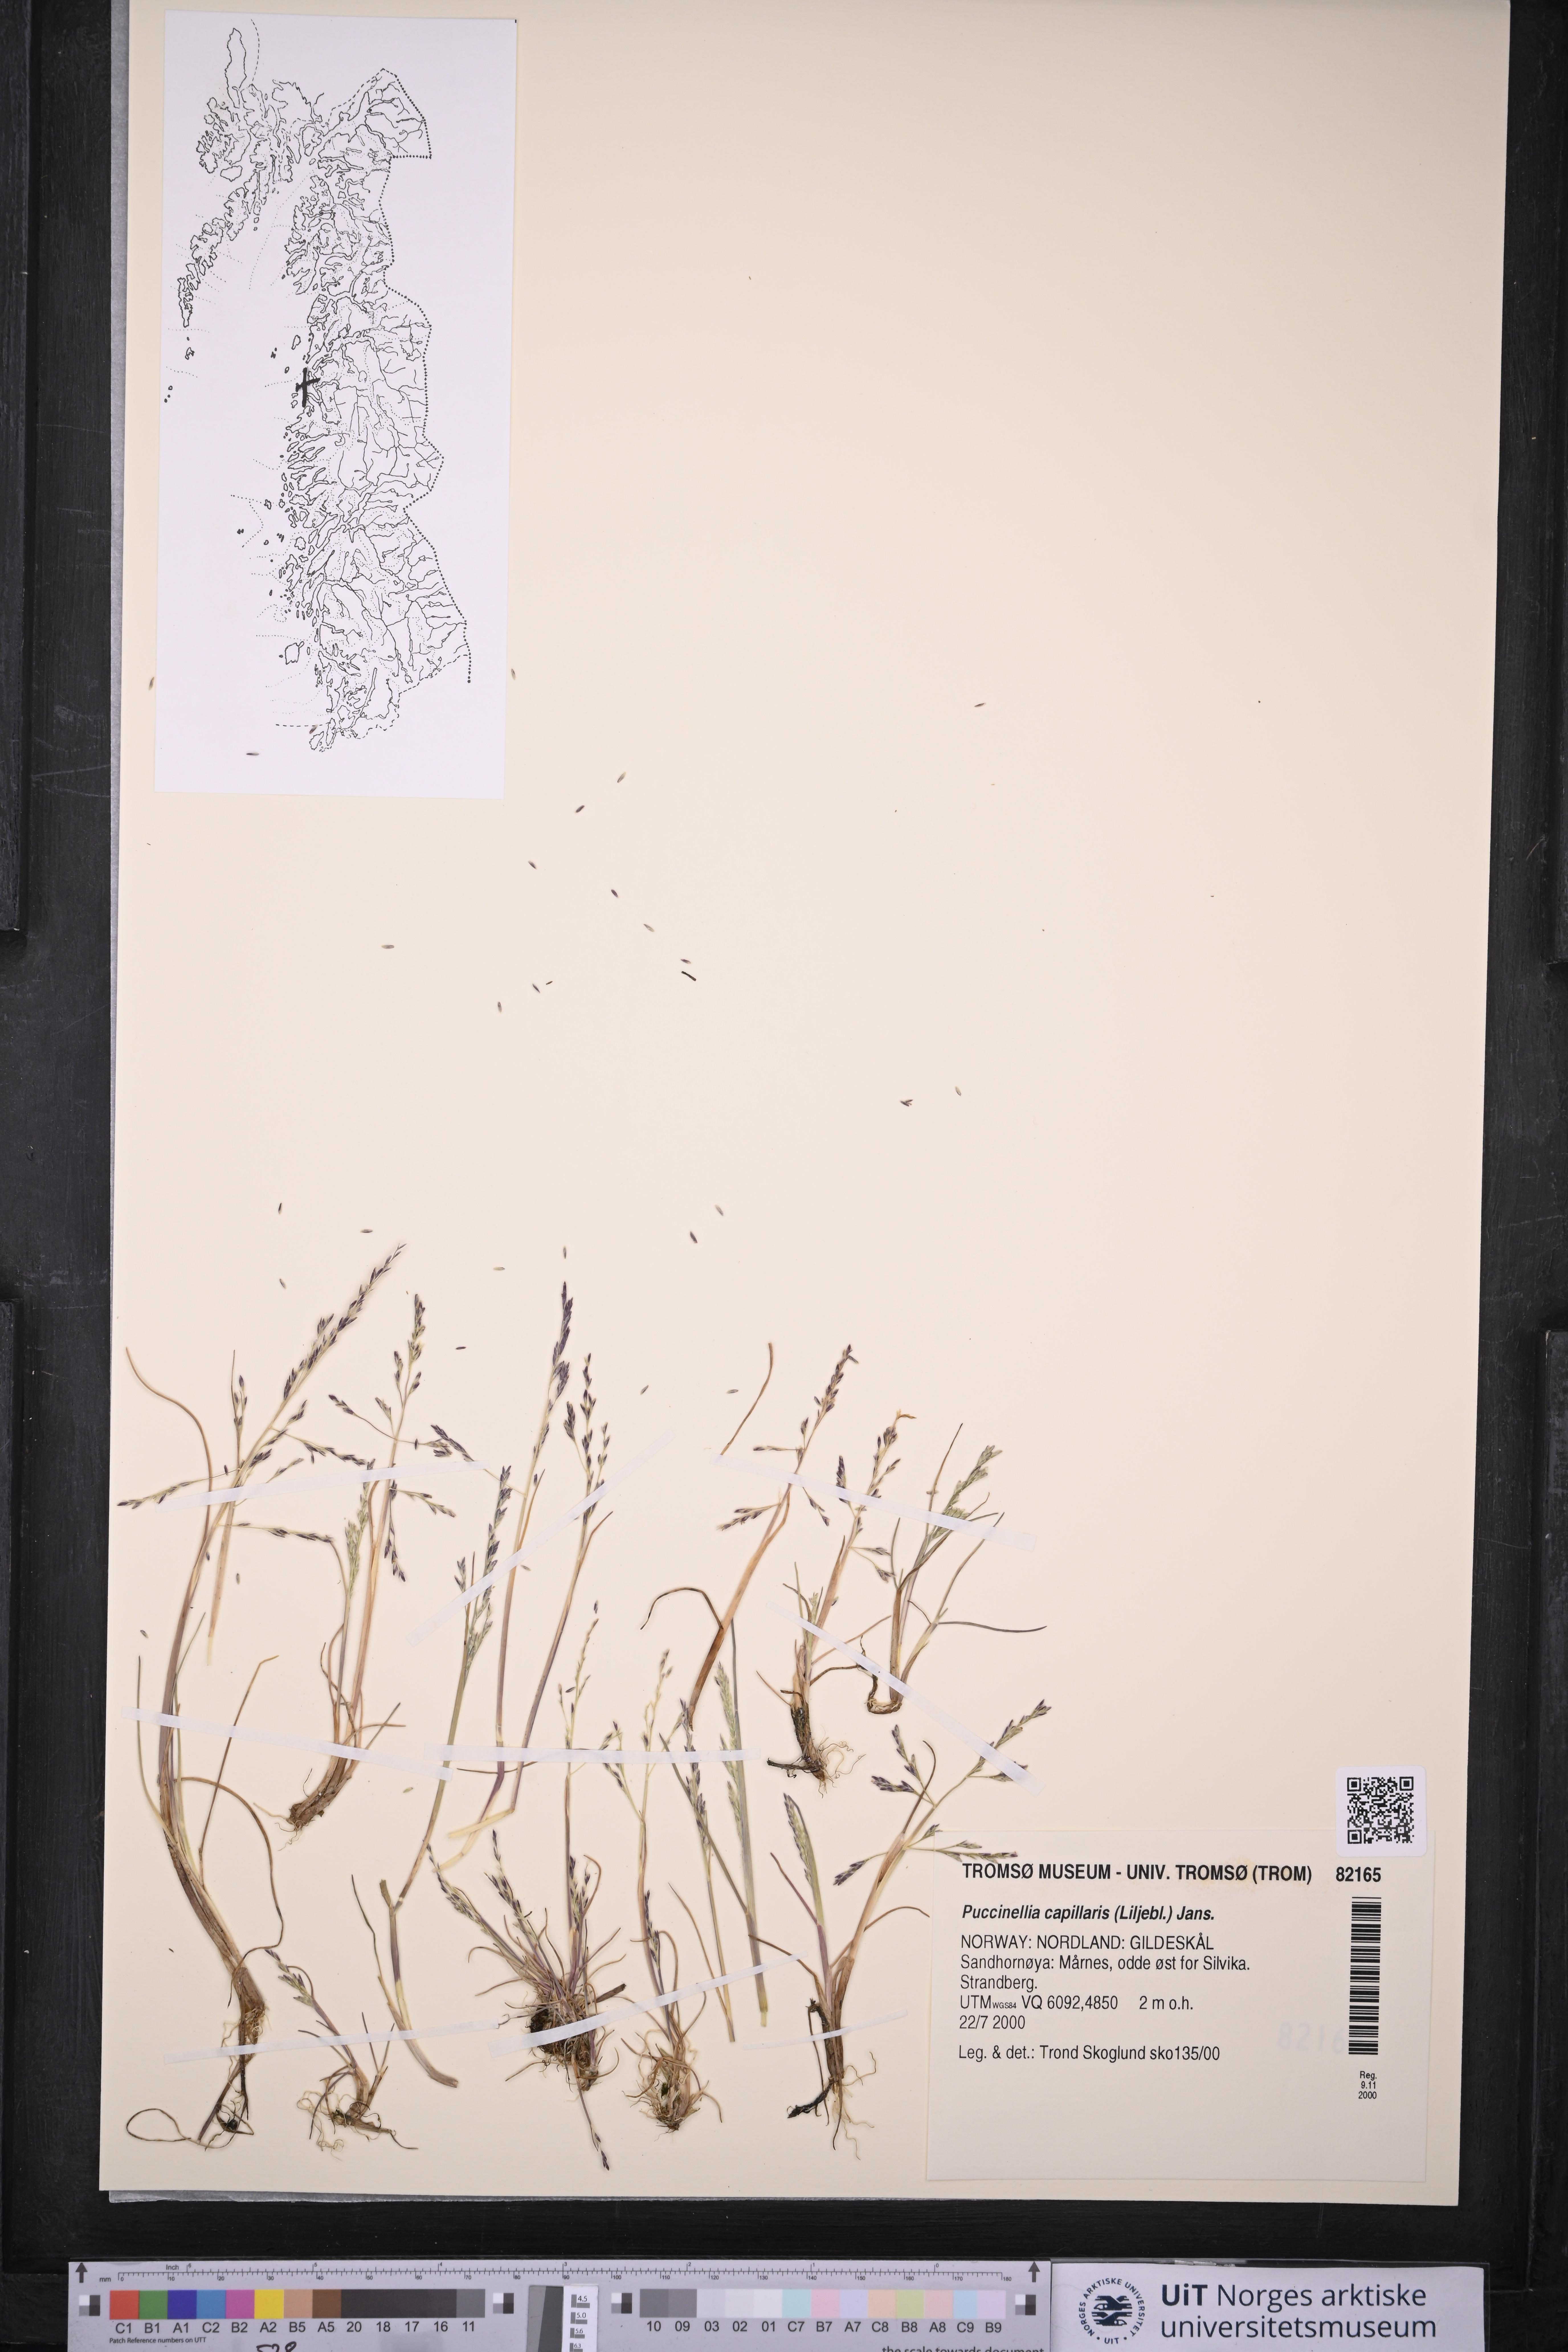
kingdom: Plantae
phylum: Tracheophyta
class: Liliopsida
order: Poales
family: Poaceae
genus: Puccinellia
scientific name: Puccinellia distans
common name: Weeping alkaligrass
